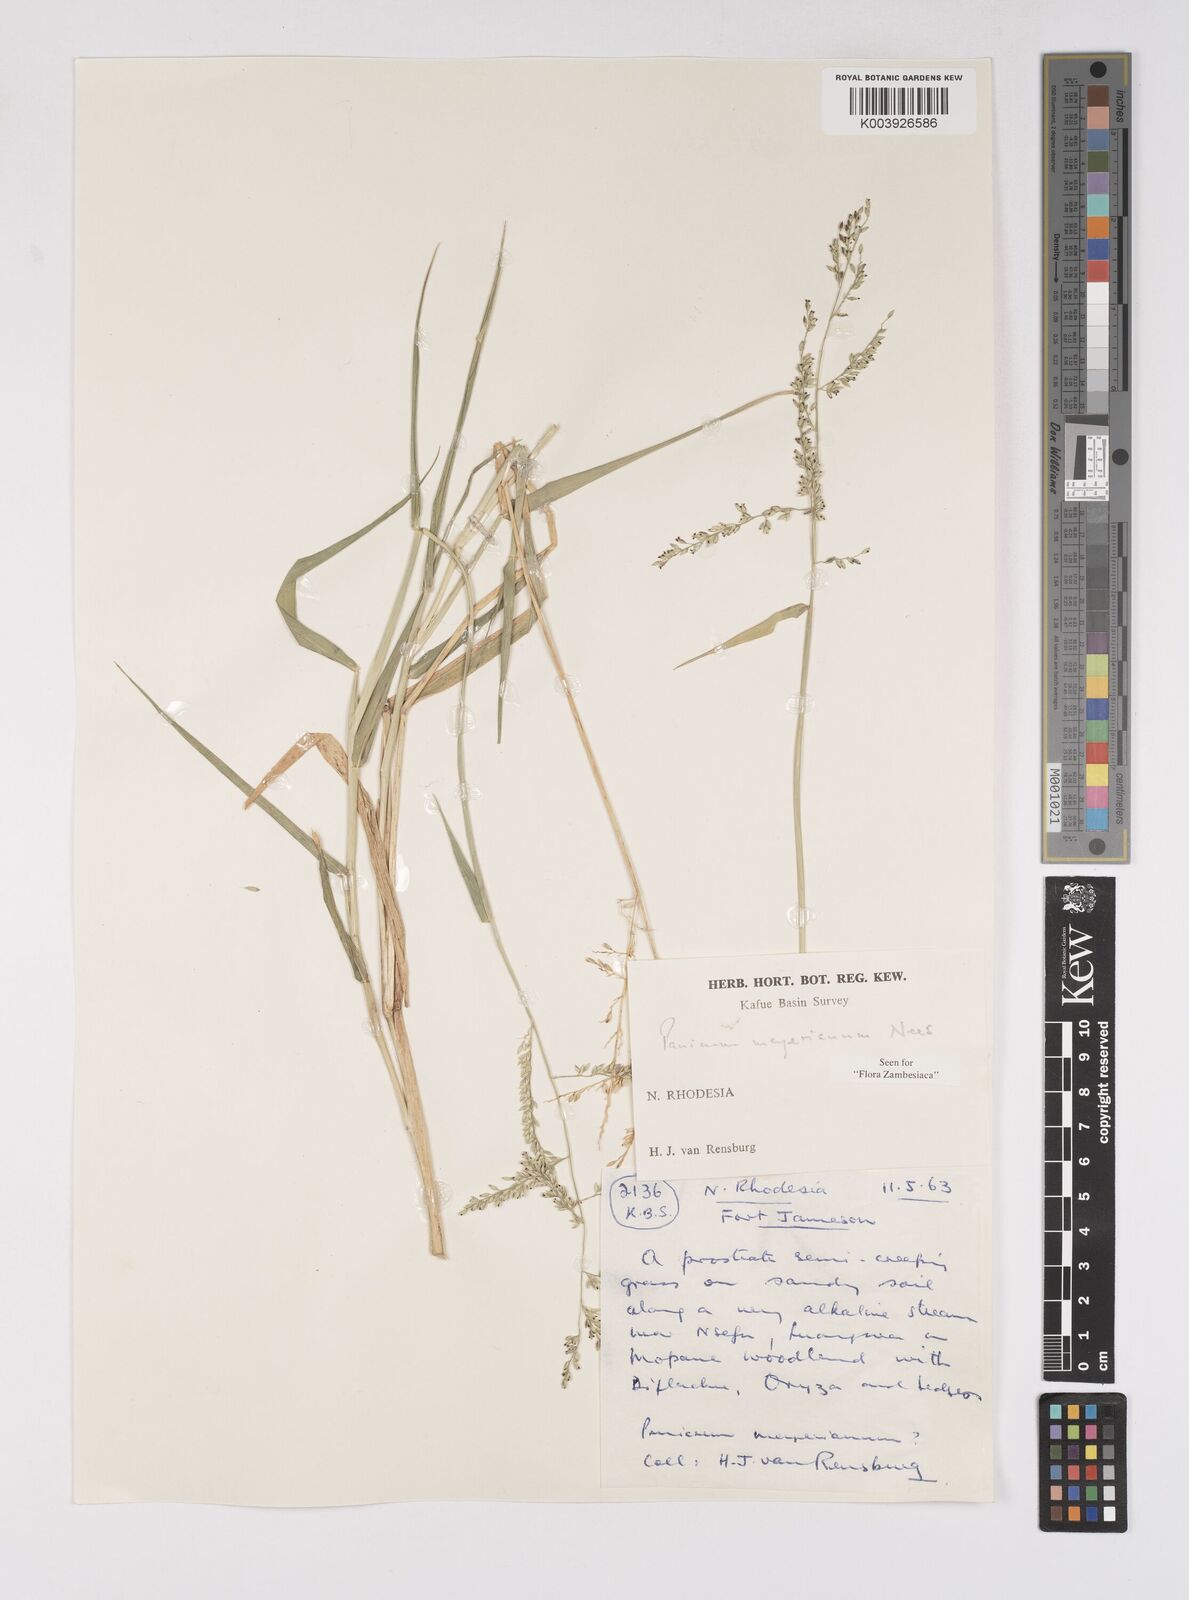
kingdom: Plantae
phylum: Tracheophyta
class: Liliopsida
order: Poales
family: Poaceae
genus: Eriochloa
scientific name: Eriochloa meyeriana
